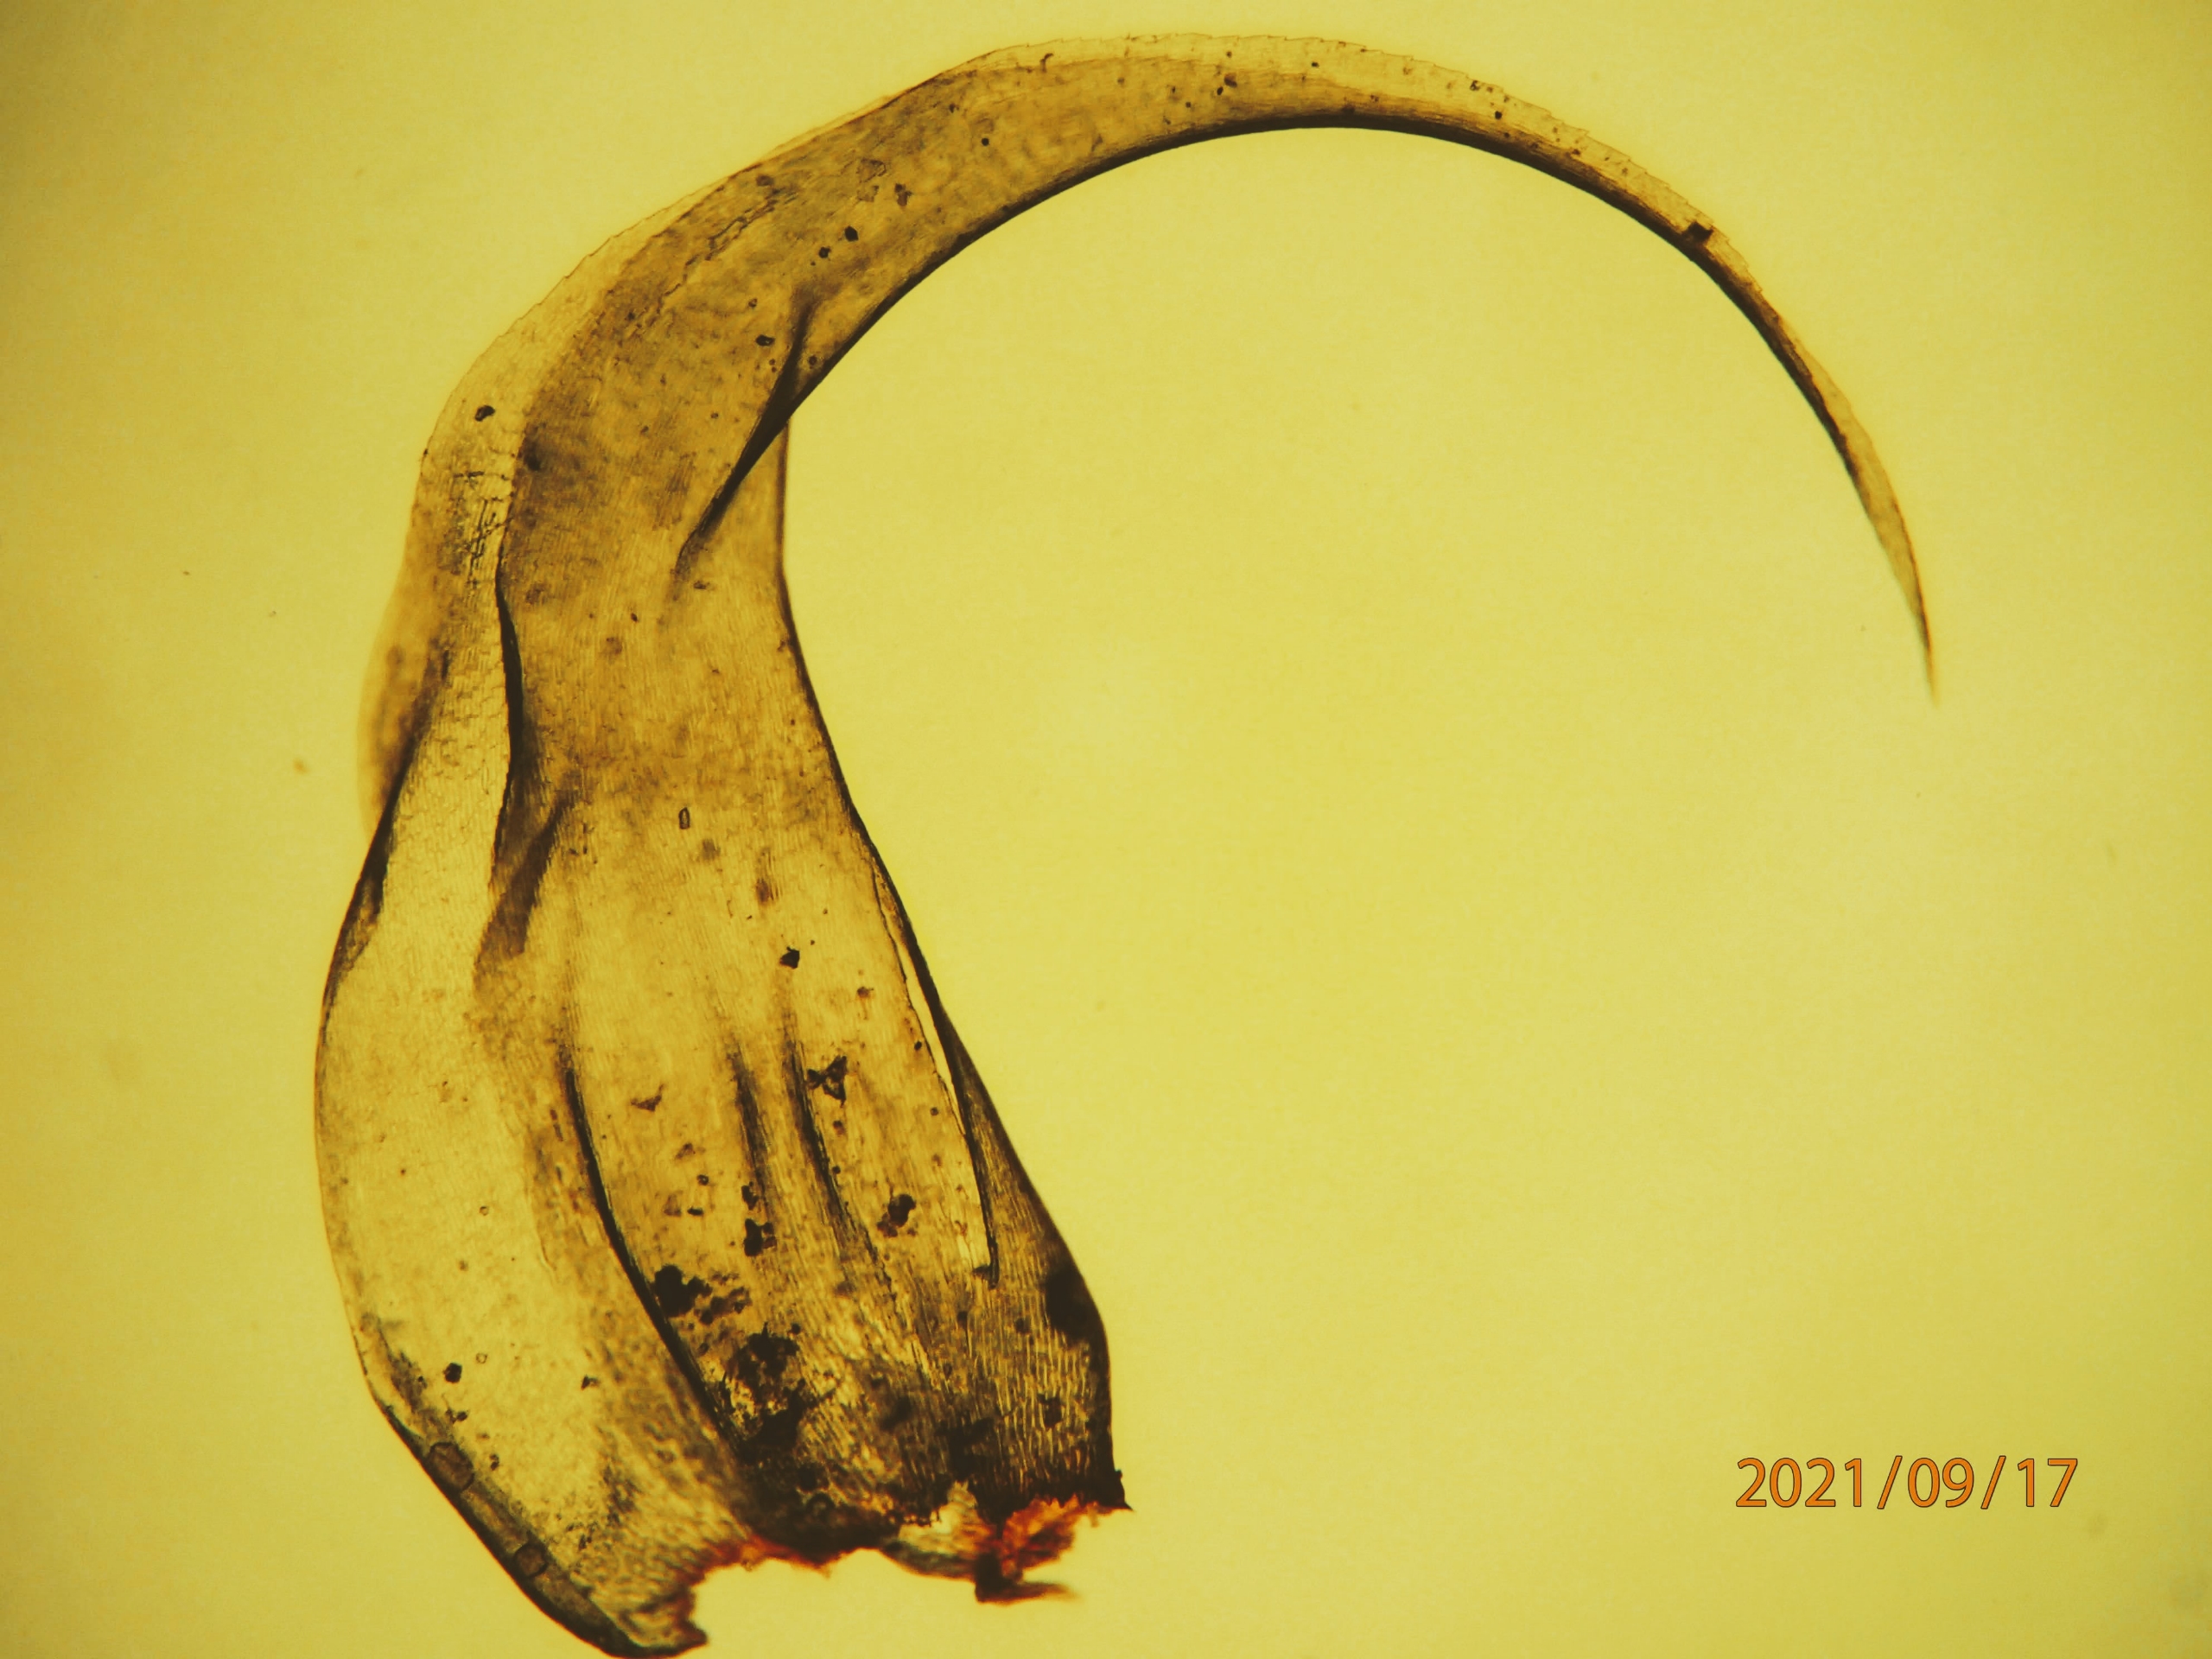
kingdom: Plantae
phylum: Bryophyta
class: Bryopsida
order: Hypnales
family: Hylocomiaceae
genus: Rhytidiadelphus
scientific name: Rhytidiadelphus loreus
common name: Ulvefod-kransemos
